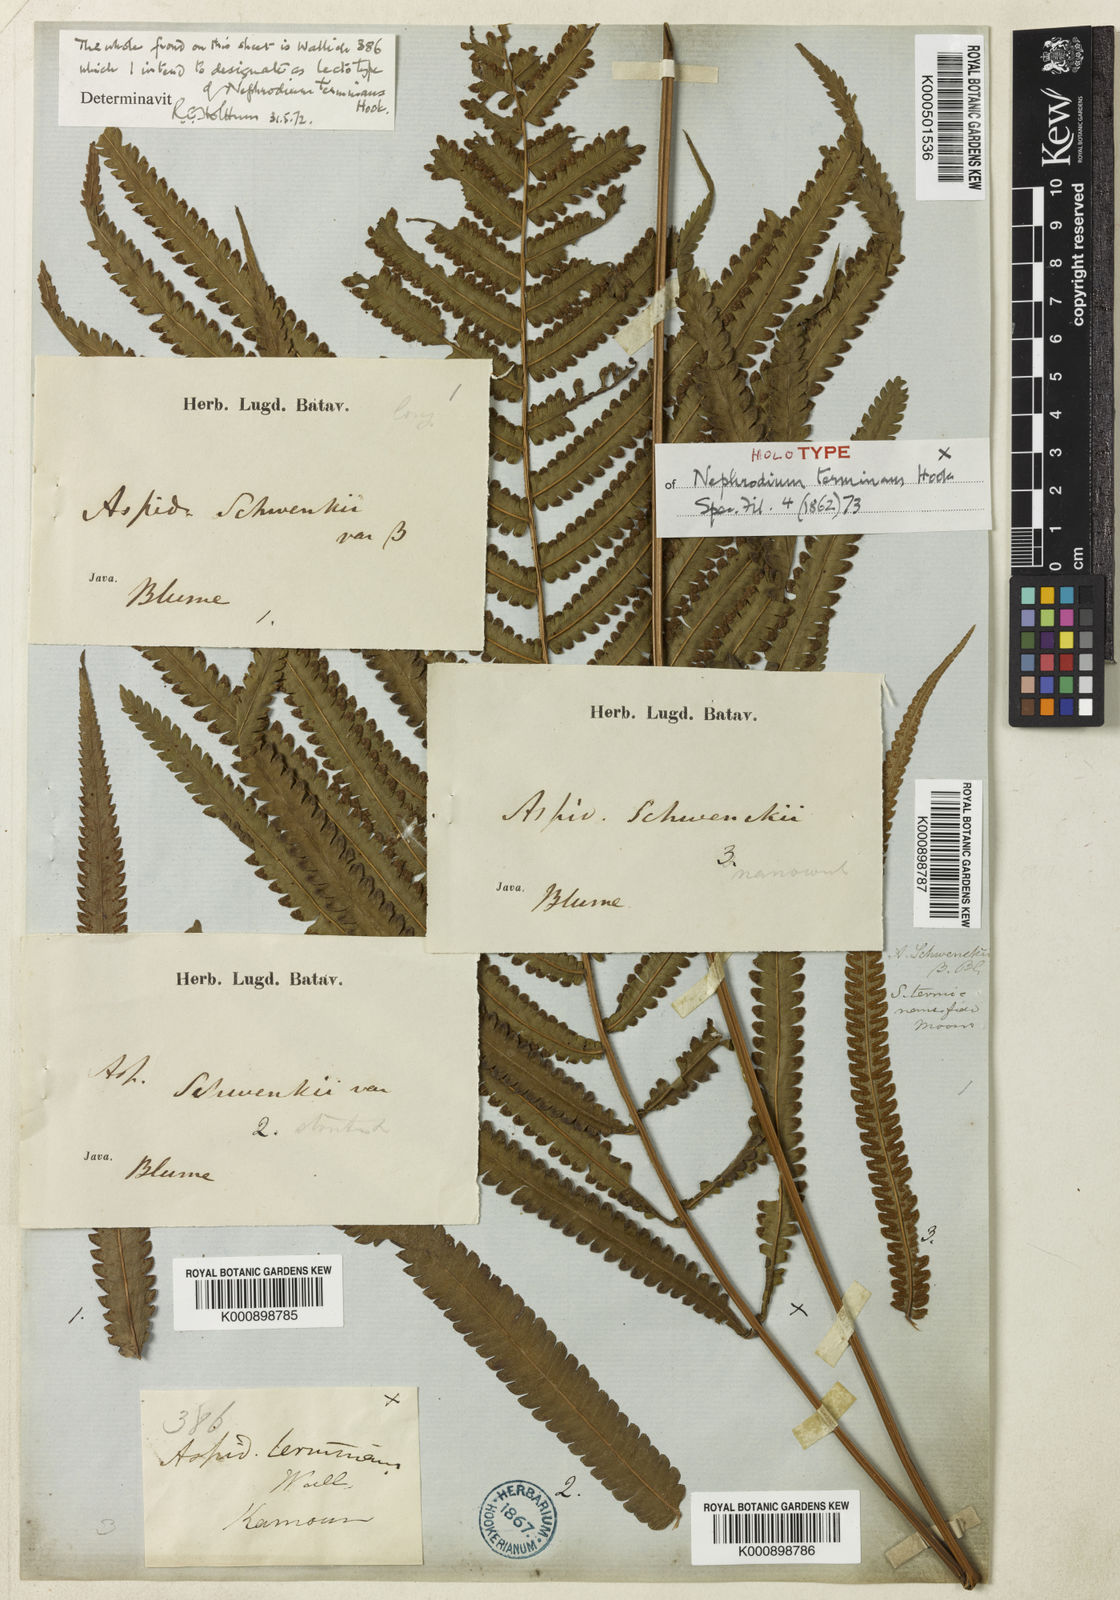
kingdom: Plantae
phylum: Tracheophyta
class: Polypodiopsida
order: Polypodiales
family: Thelypteridaceae
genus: Amblovenatum
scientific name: Amblovenatum terminans
